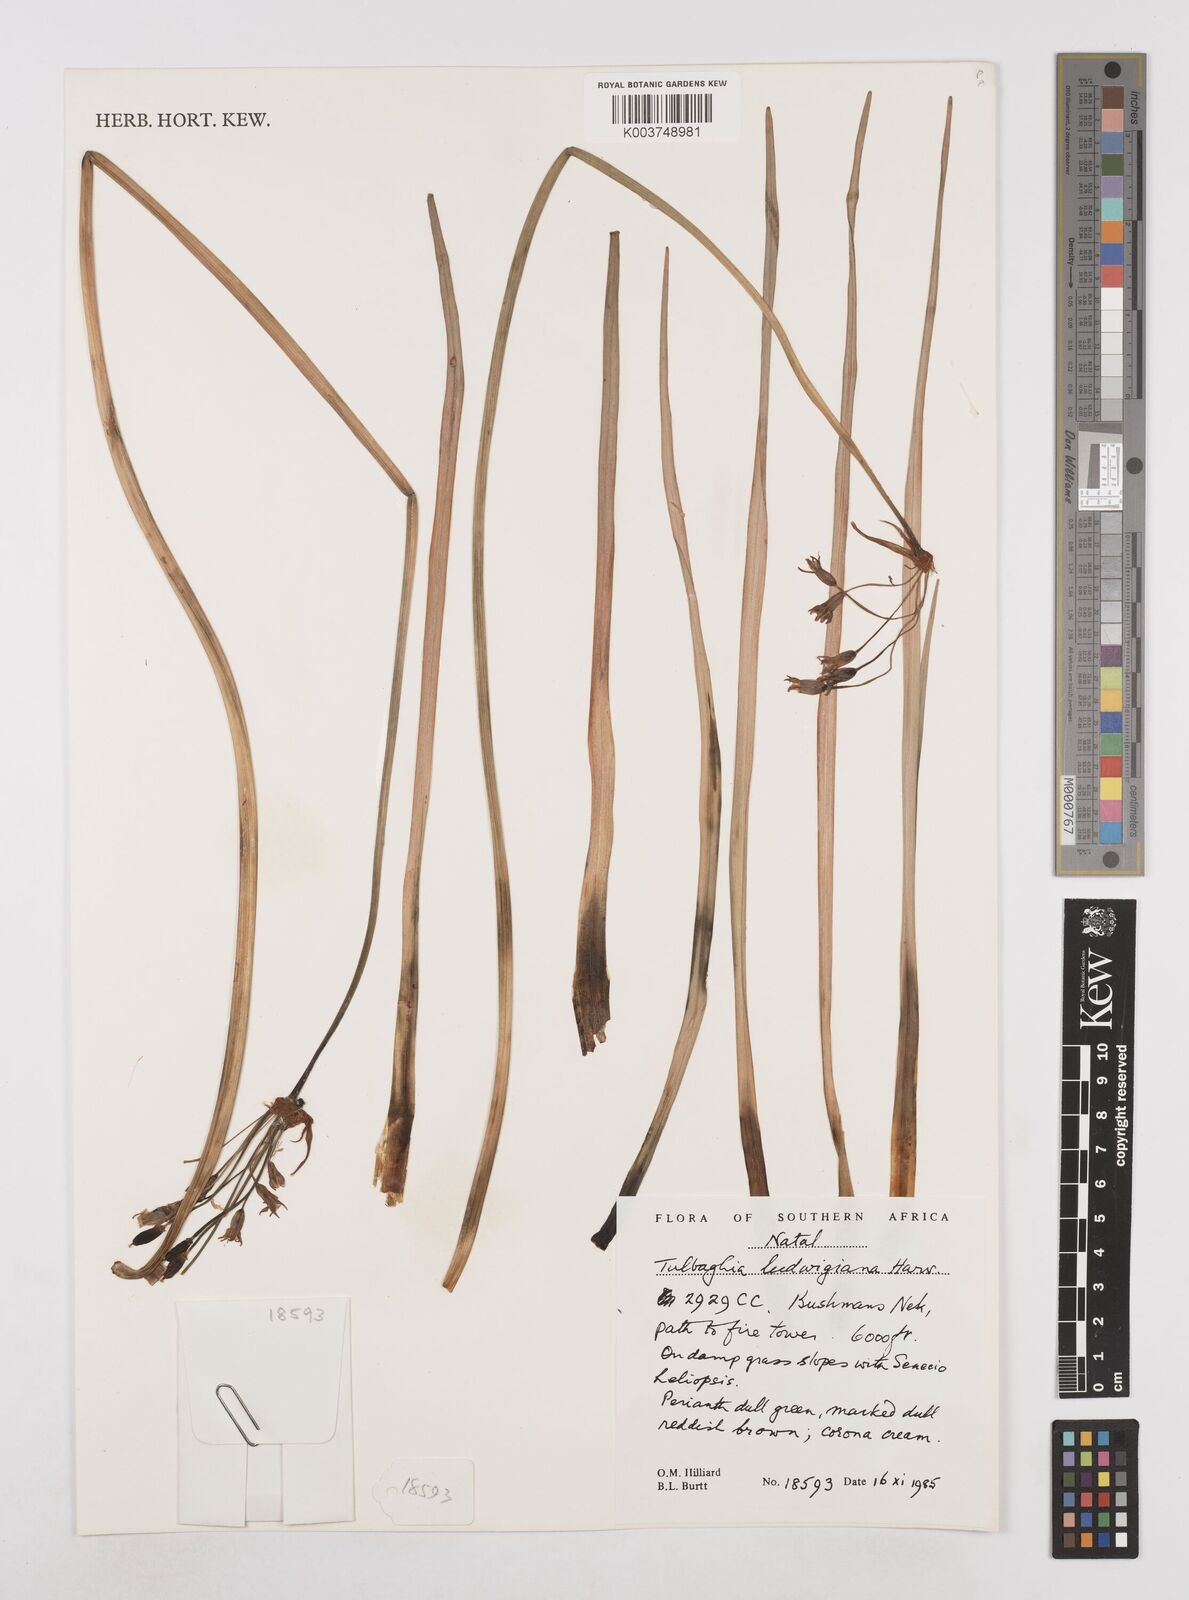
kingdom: Plantae
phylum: Tracheophyta
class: Liliopsida
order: Asparagales
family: Amaryllidaceae
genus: Tulbaghia
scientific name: Tulbaghia ludwigiana
